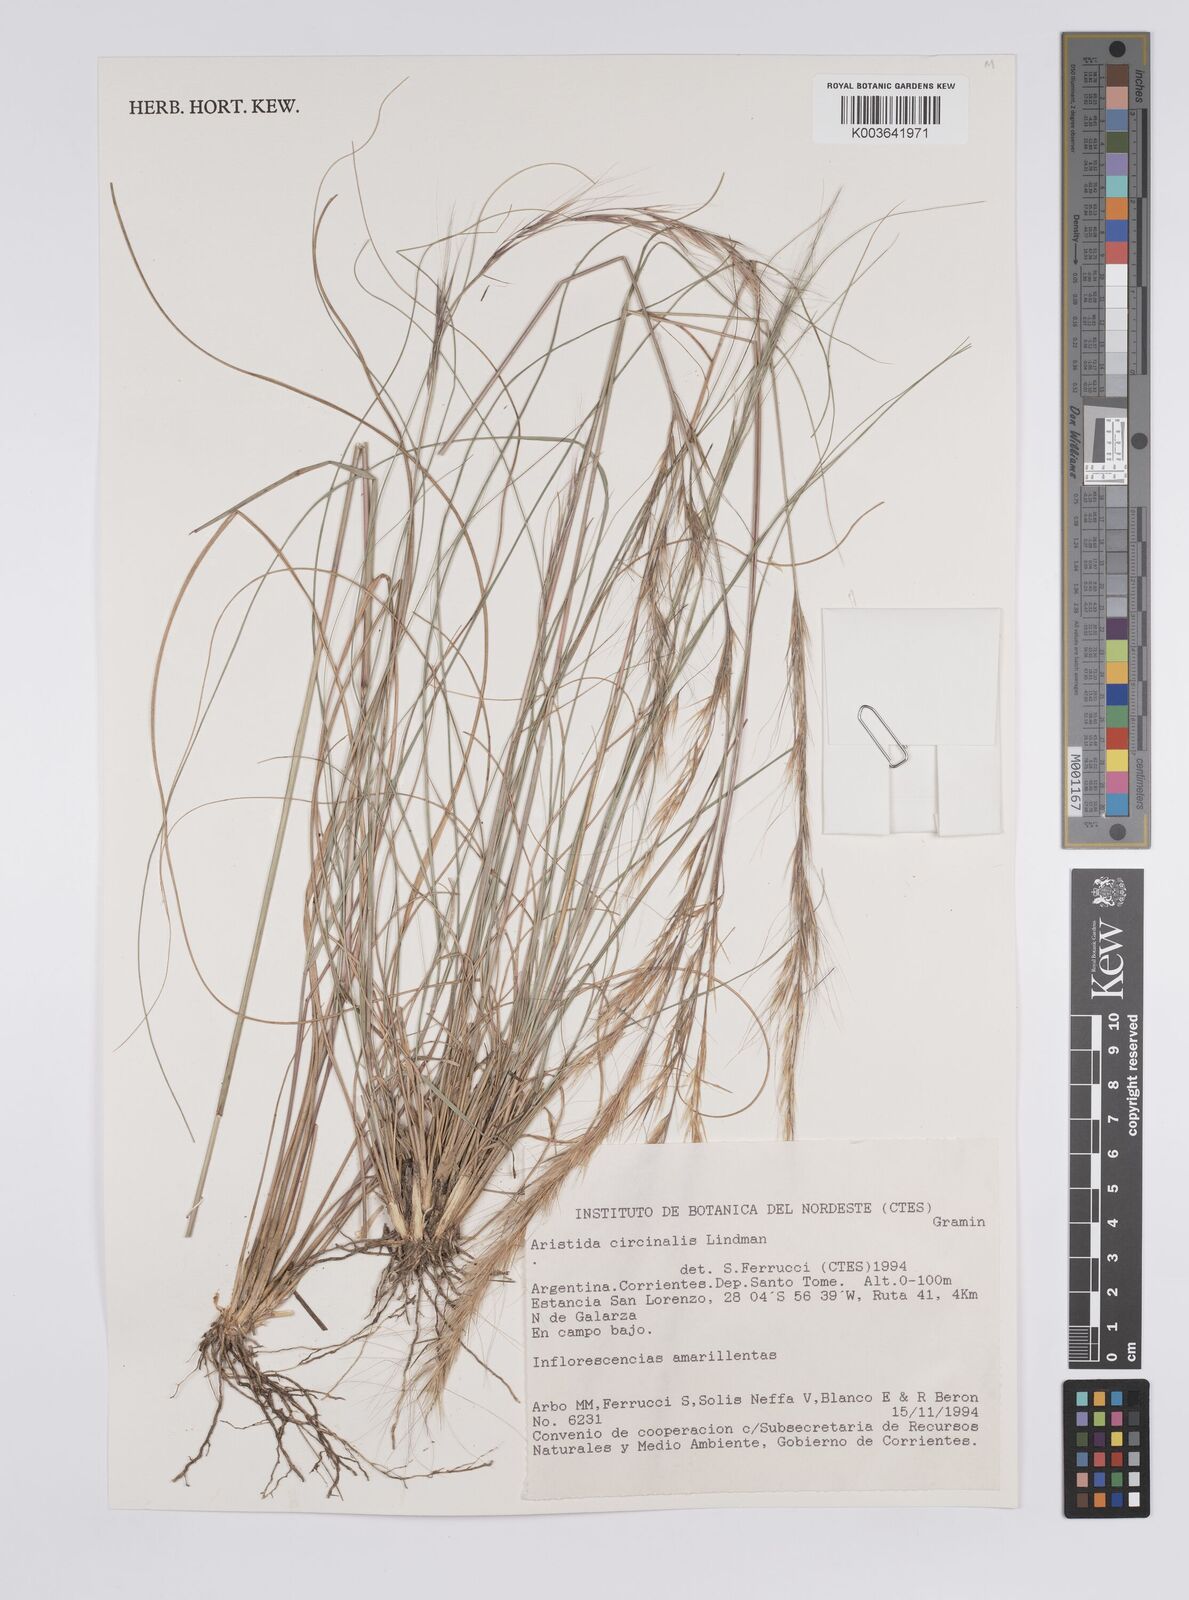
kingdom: Plantae
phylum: Tracheophyta
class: Liliopsida
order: Poales
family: Poaceae
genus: Aristida
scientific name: Aristida circinalis
